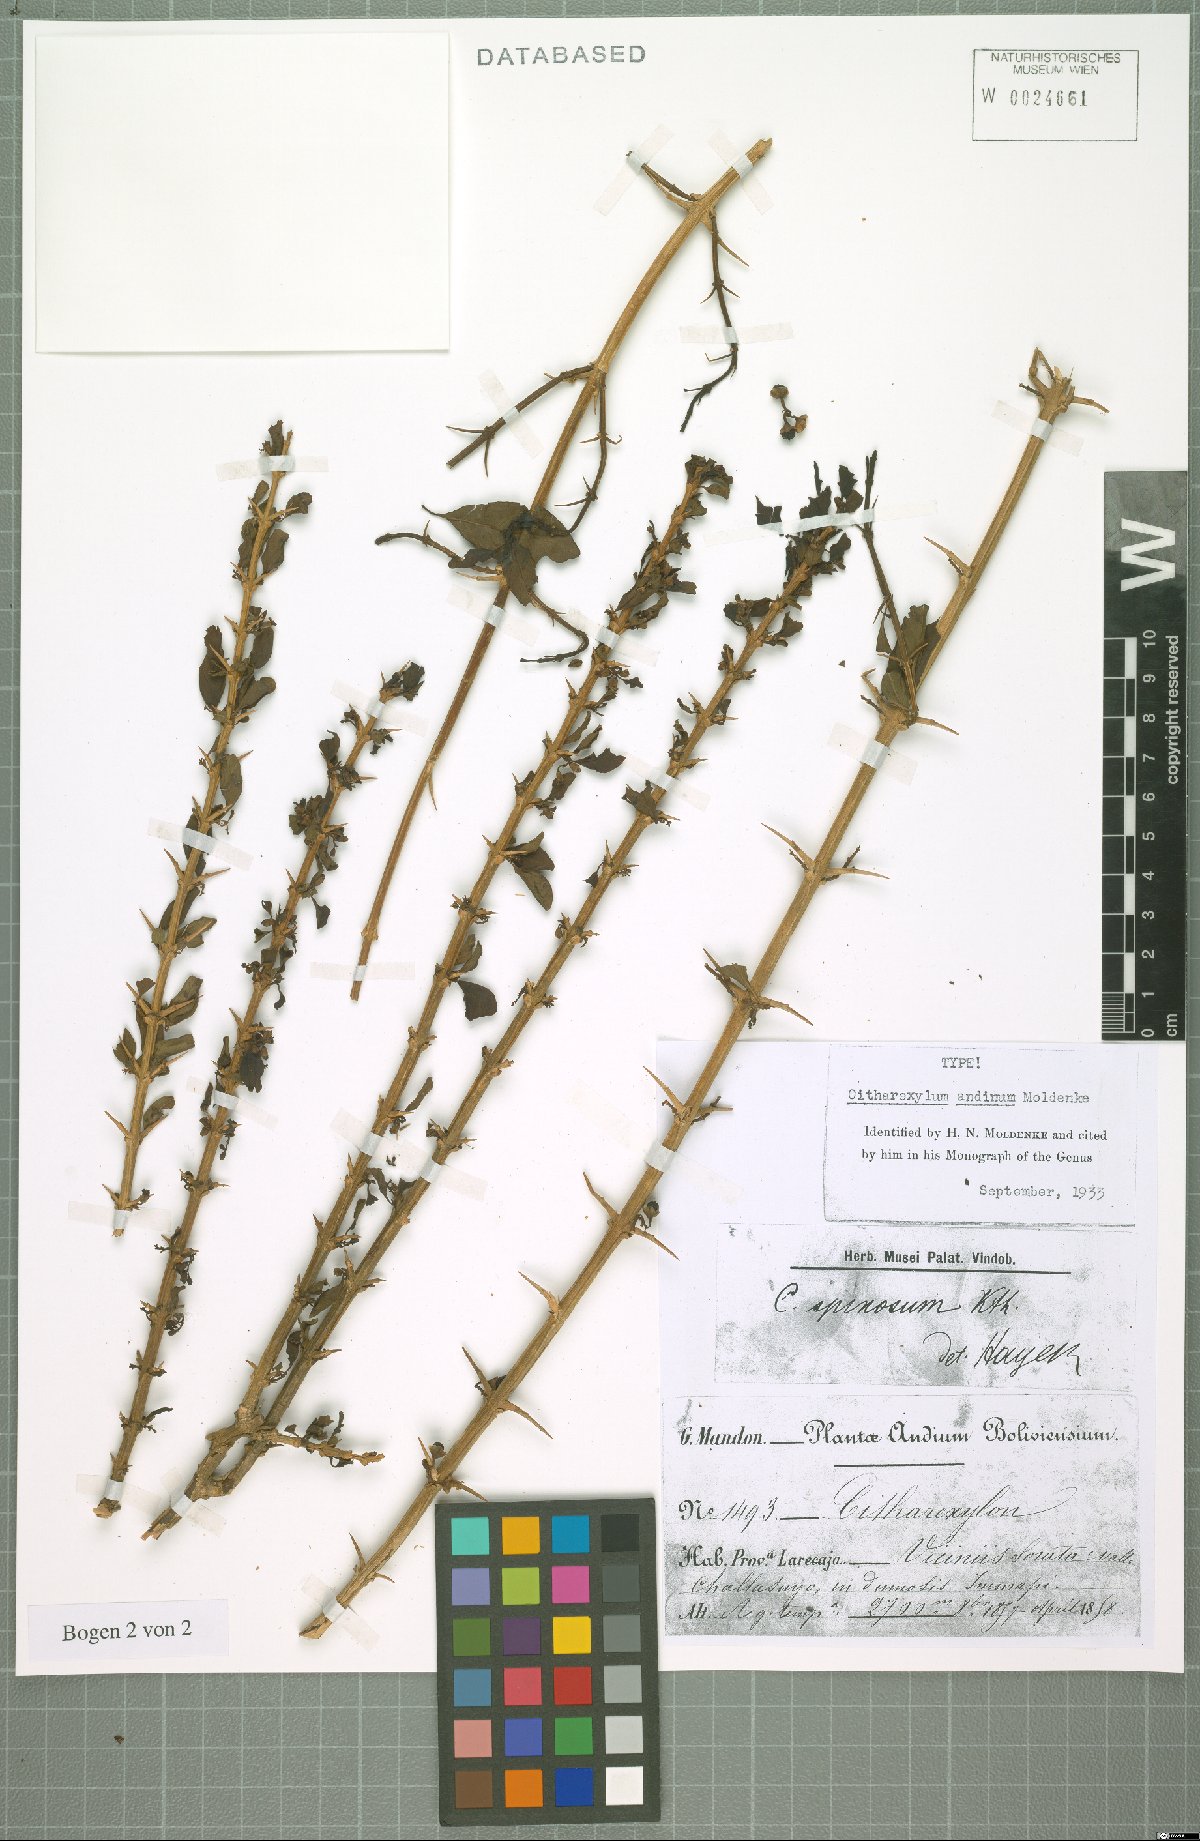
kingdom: Plantae
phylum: Tracheophyta
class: Magnoliopsida
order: Lamiales
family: Verbenaceae
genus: Citharexylum
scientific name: Citharexylum andinum
